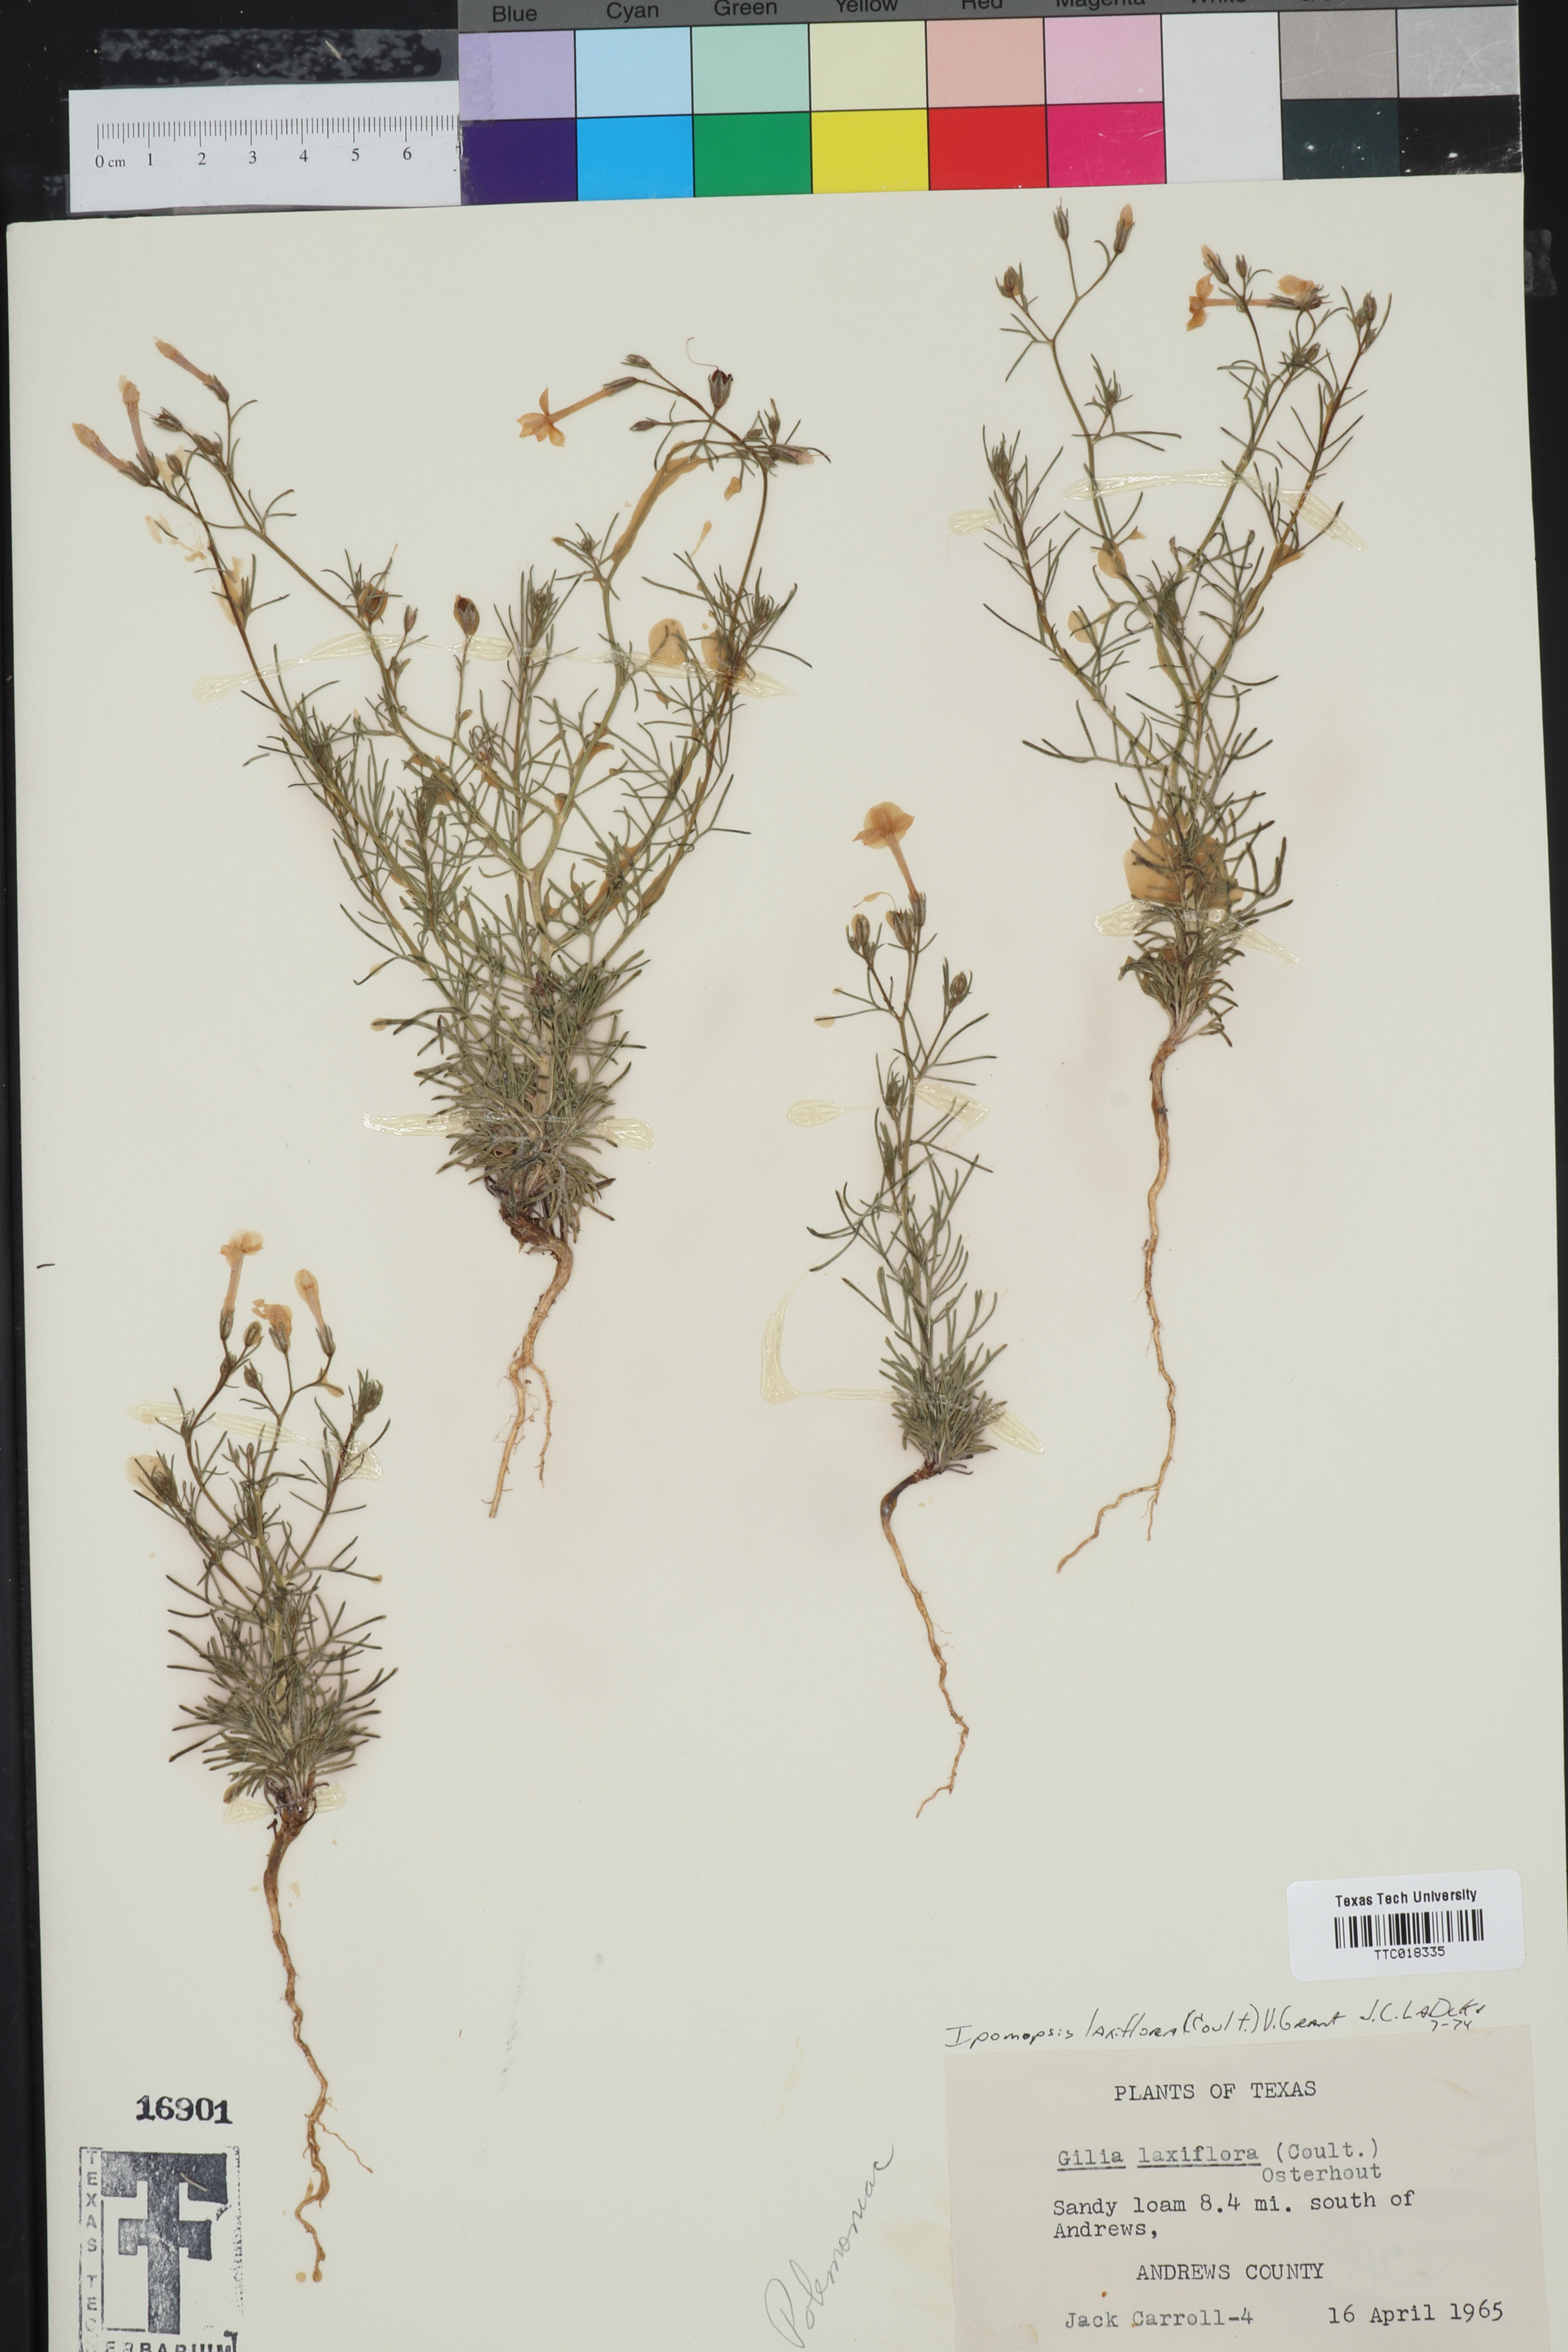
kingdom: Plantae
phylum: Tracheophyta
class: Magnoliopsida
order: Ericales
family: Polemoniaceae
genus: Ipomopsis
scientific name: Ipomopsis laxiflora
